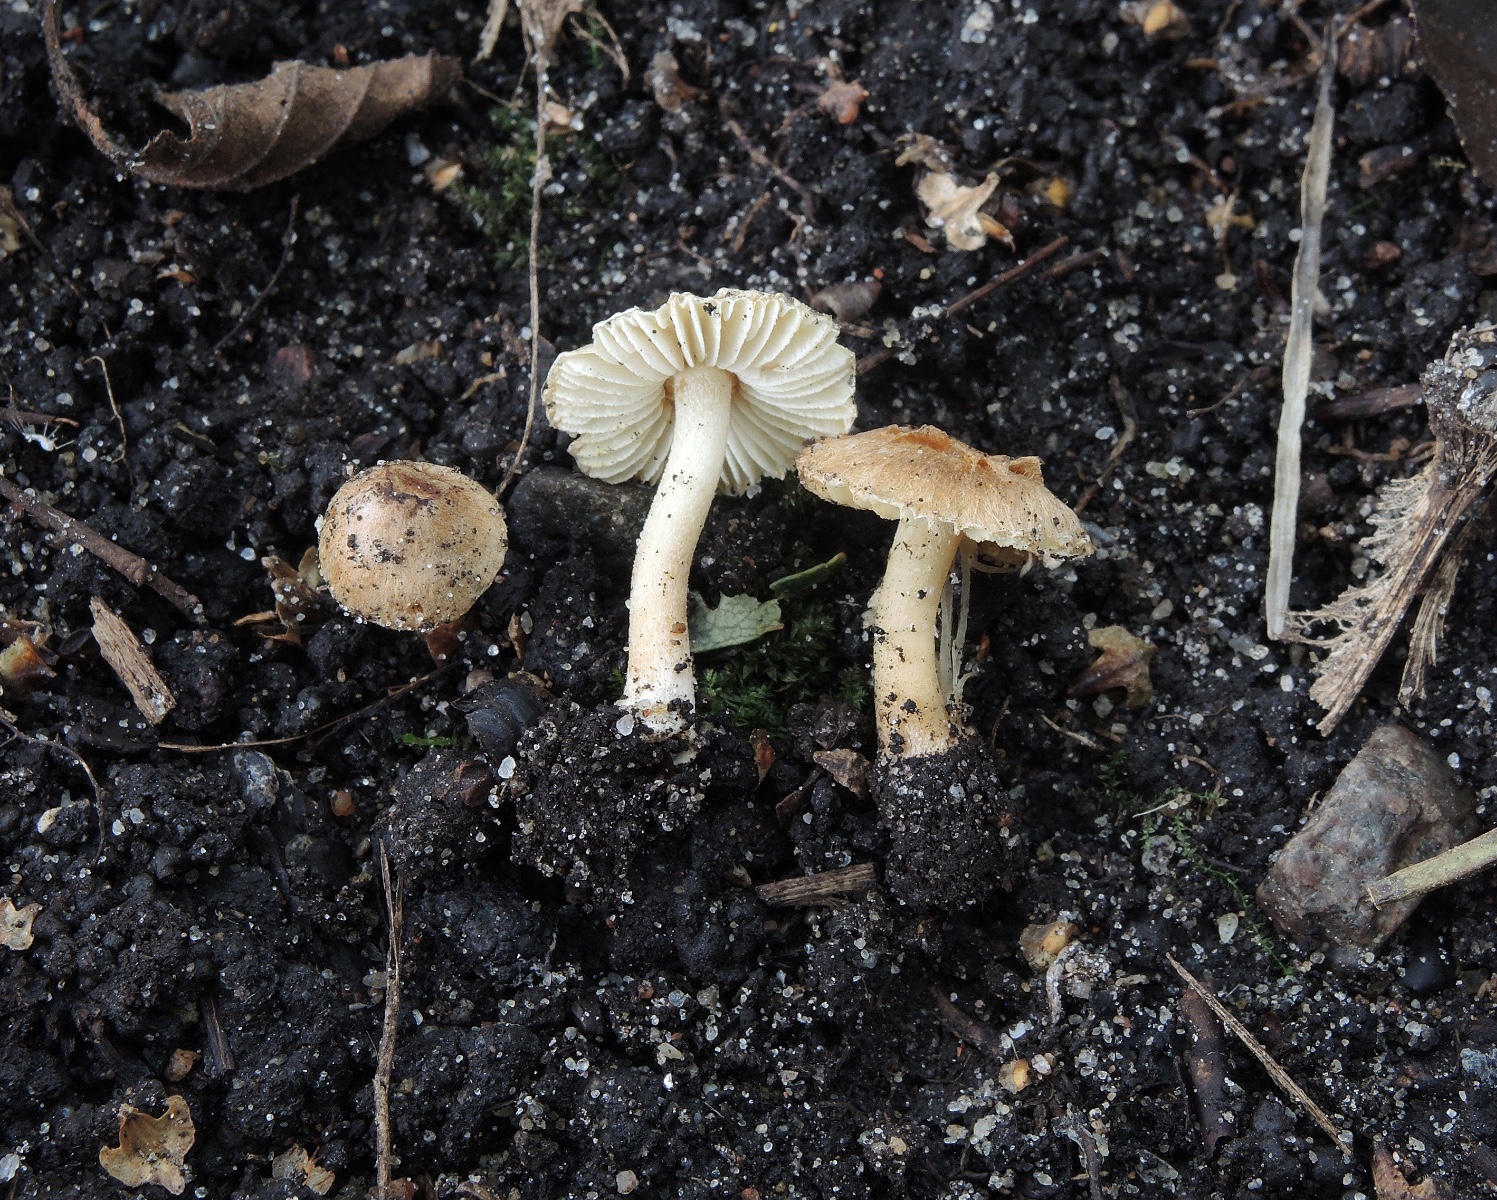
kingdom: Fungi
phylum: Basidiomycota
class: Agaricomycetes
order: Agaricales
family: Inocybaceae
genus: Inocybe
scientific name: Inocybe alnea
